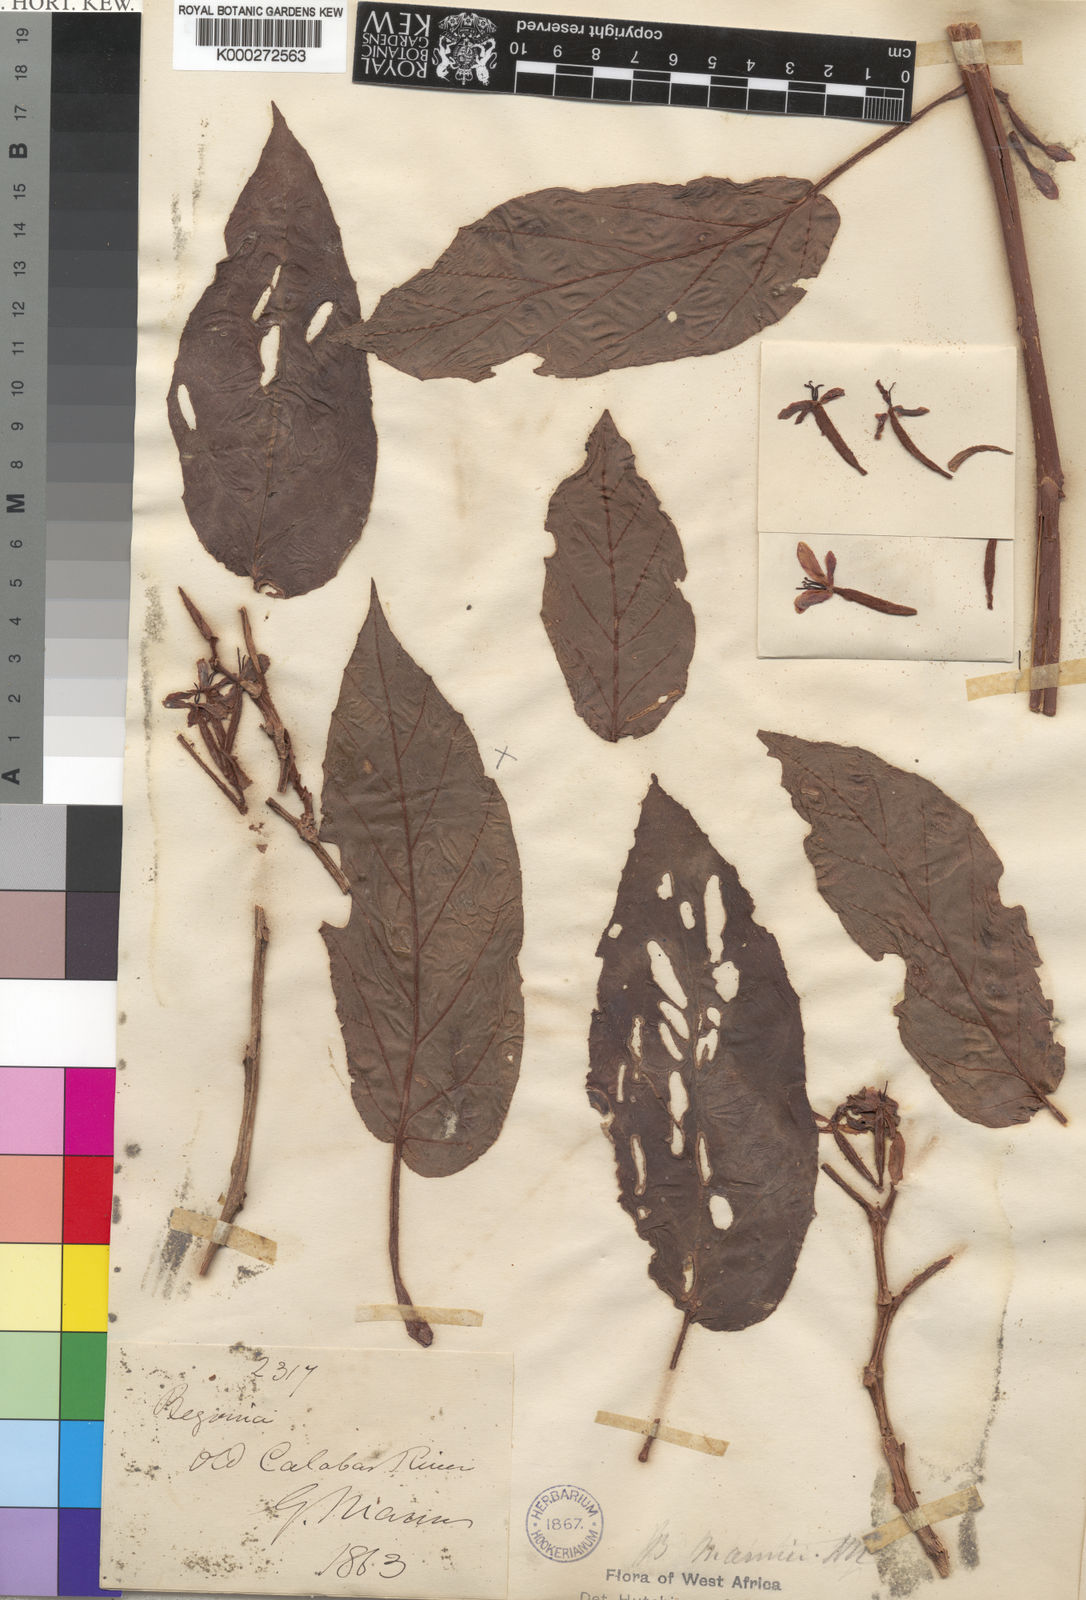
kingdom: Plantae
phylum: Tracheophyta
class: Magnoliopsida
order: Cucurbitales
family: Begoniaceae
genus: Begonia
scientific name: Begonia mannii
